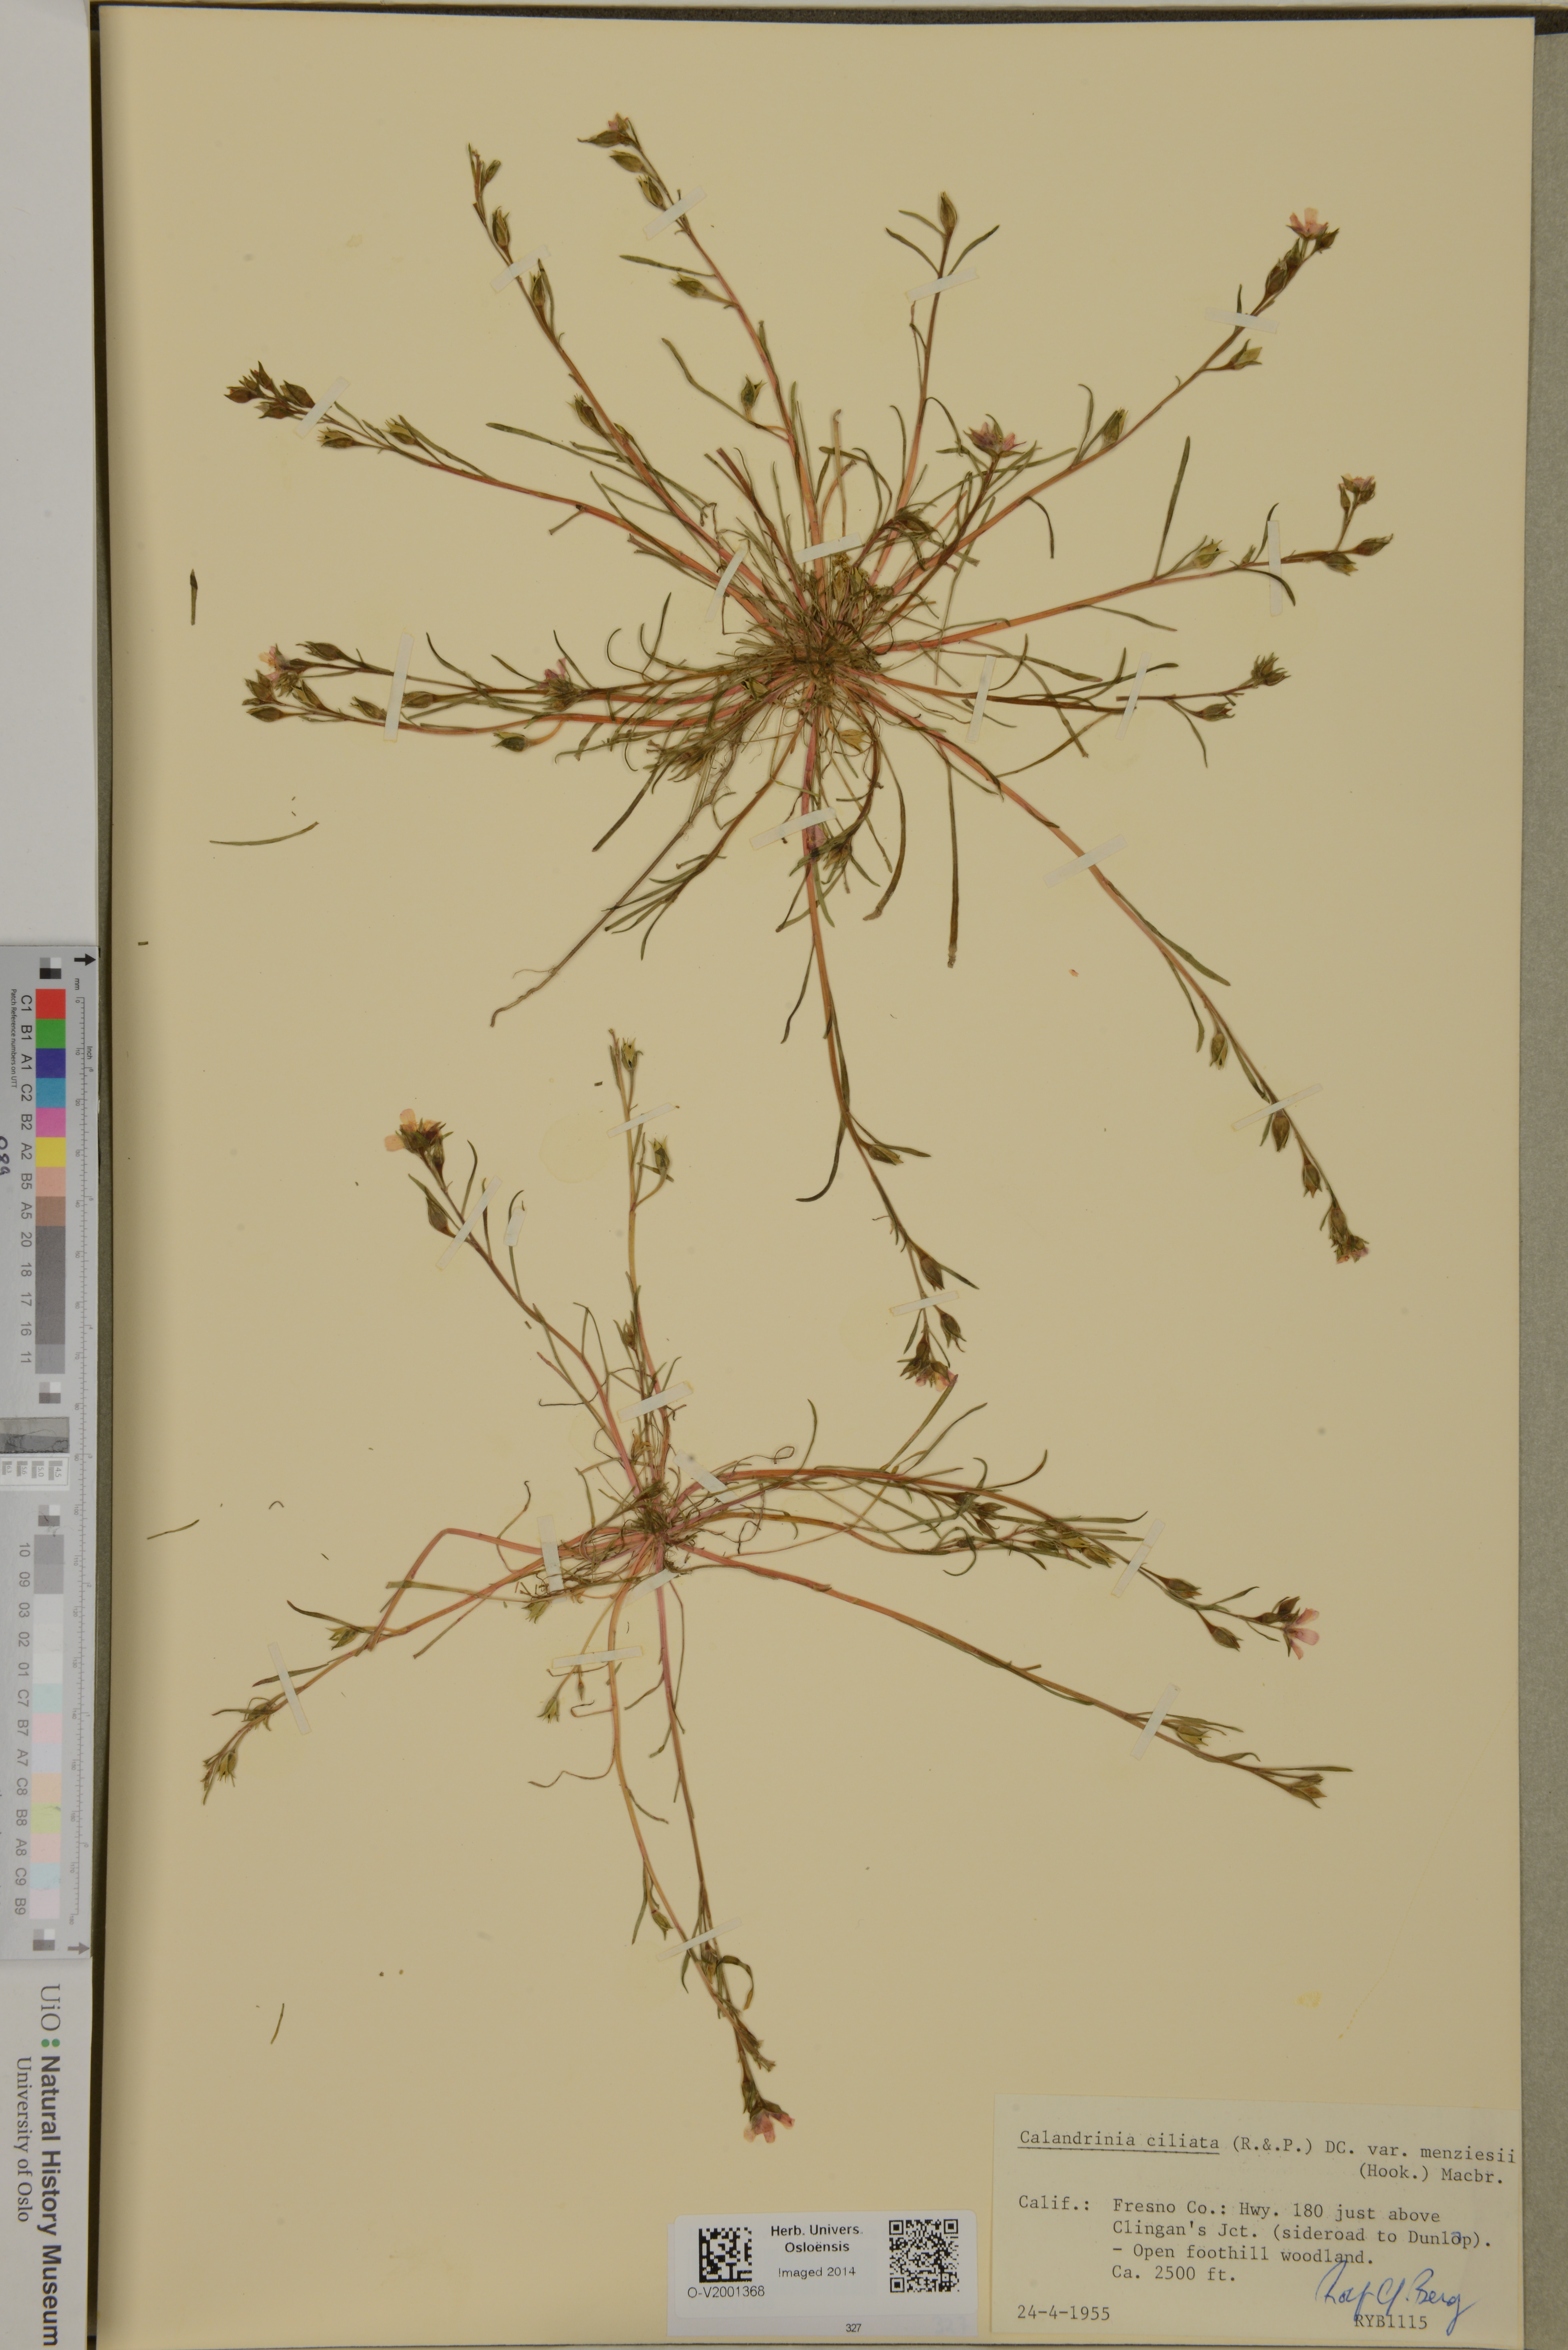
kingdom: Plantae
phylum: Tracheophyta
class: Magnoliopsida
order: Caryophyllales
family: Montiaceae
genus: Calandrinia
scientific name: Calandrinia ciliata
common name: Red-maids
